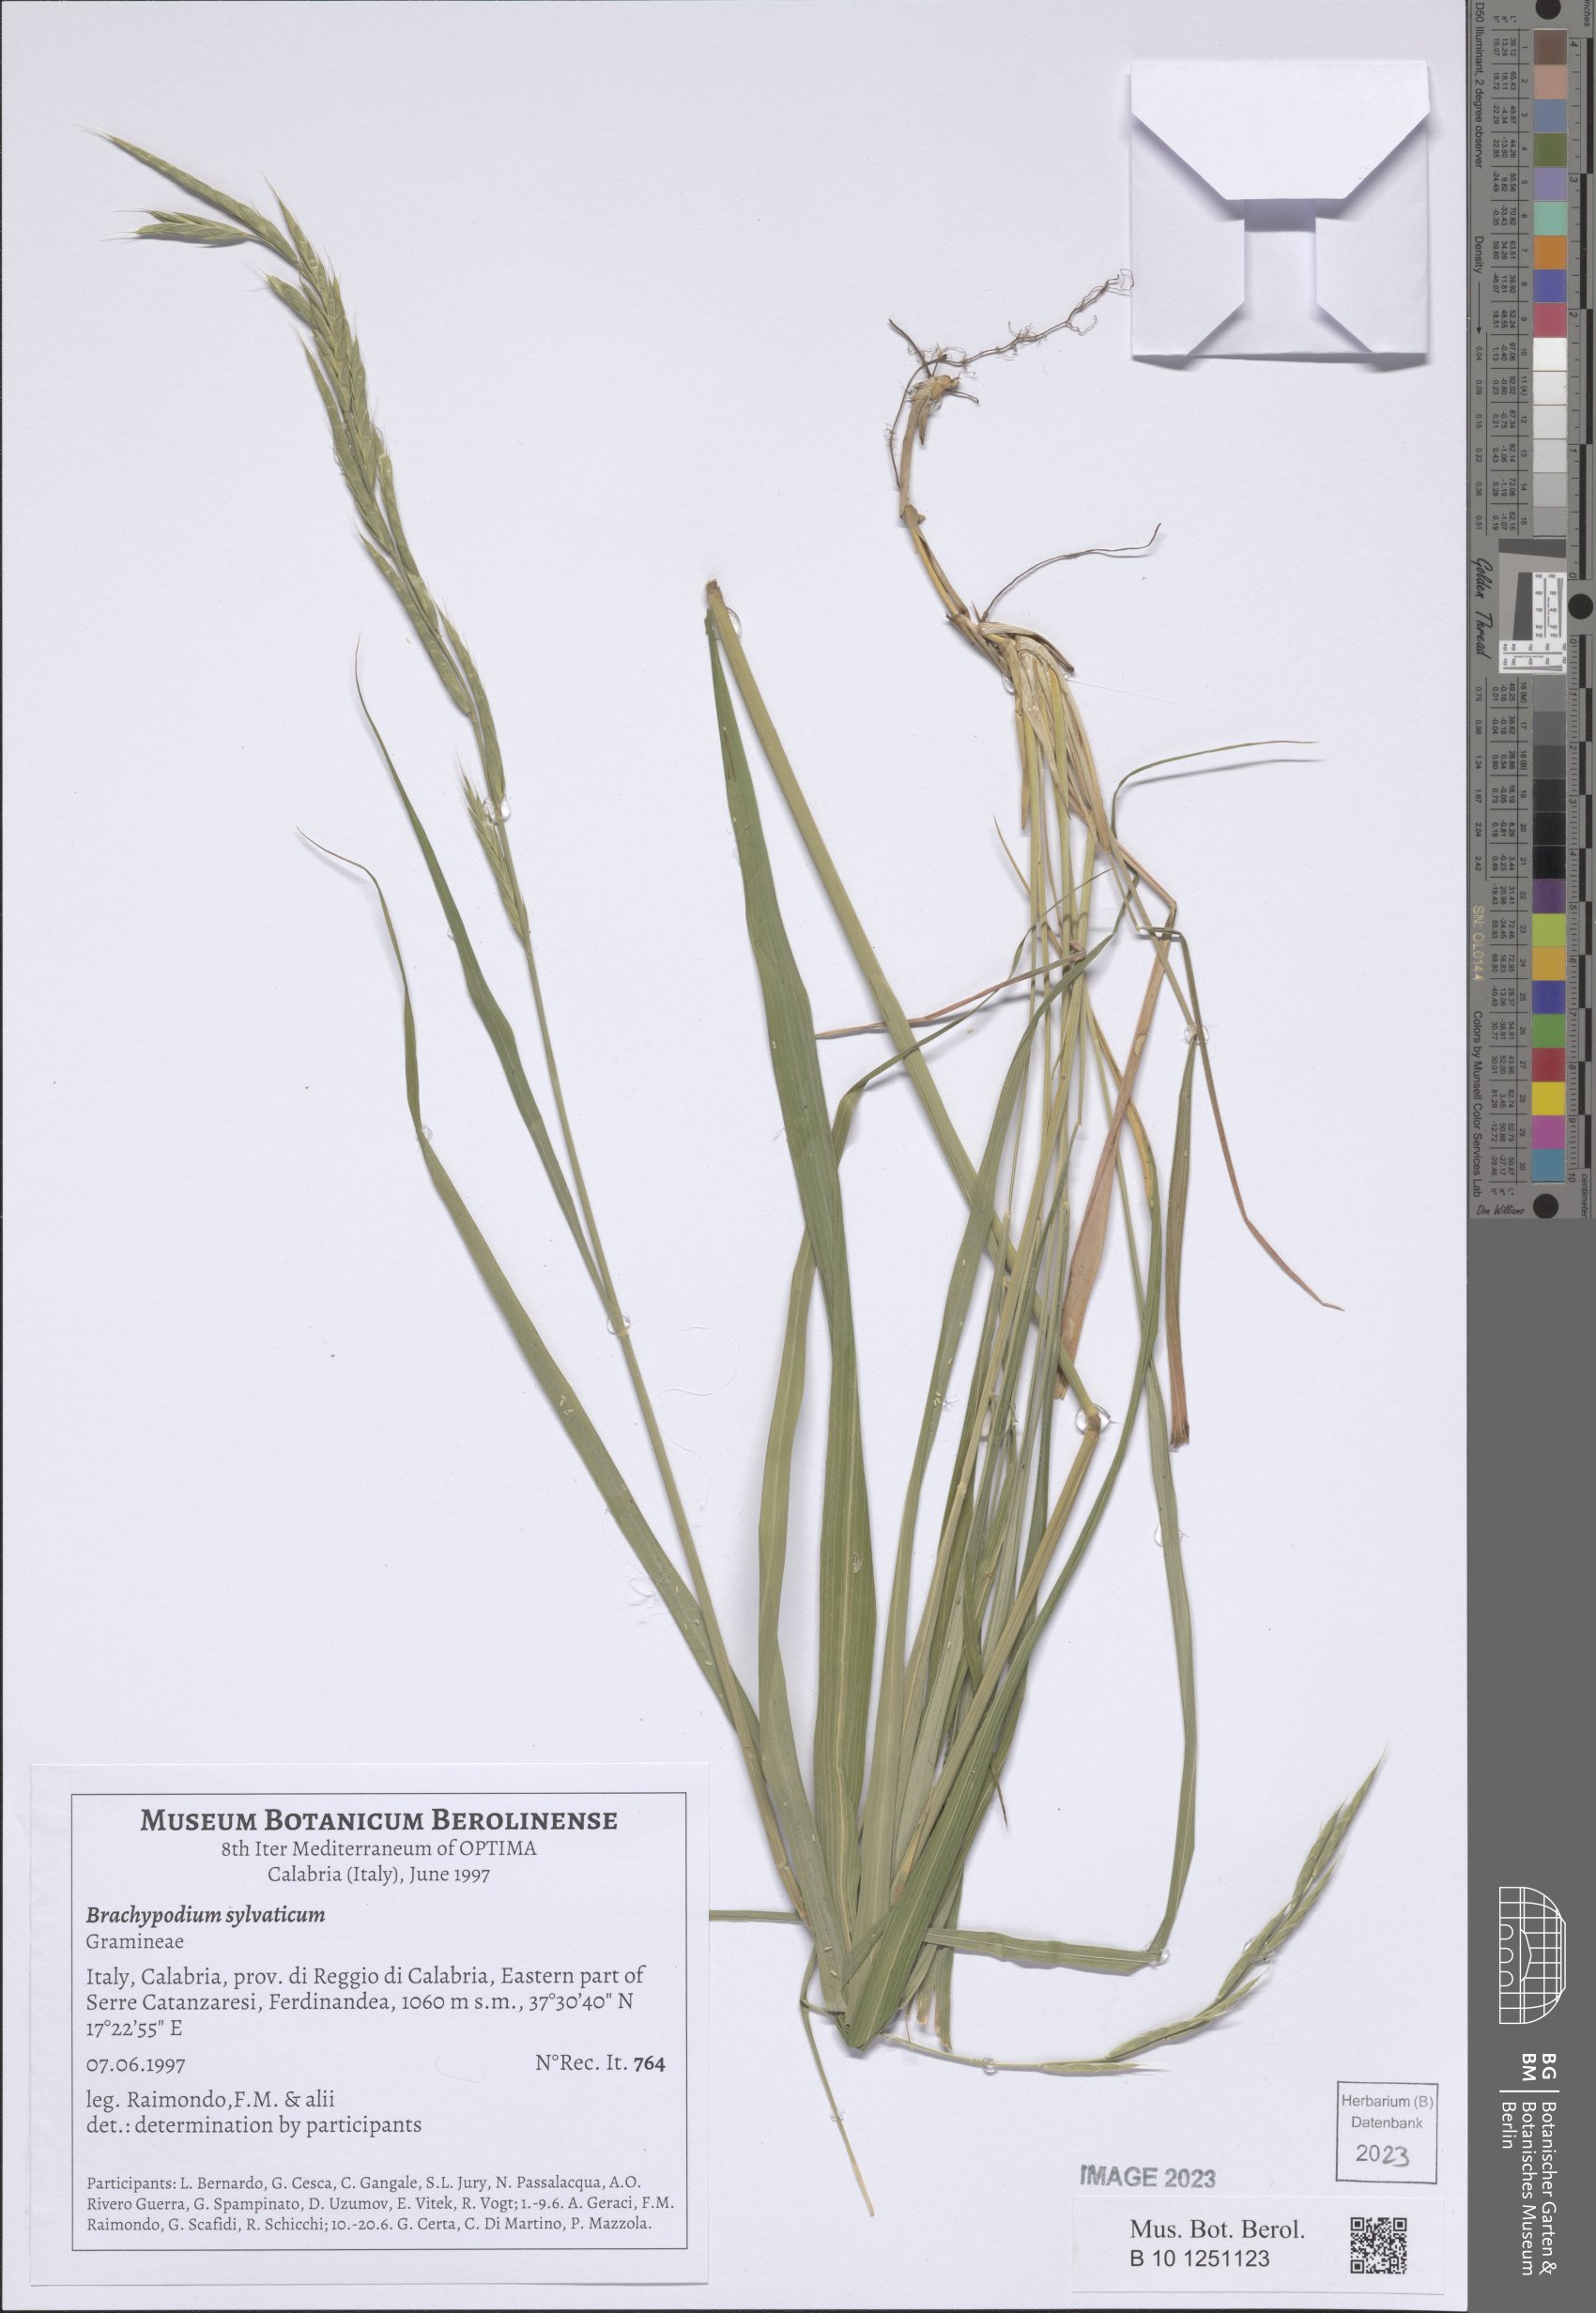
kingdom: Plantae
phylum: Tracheophyta
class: Liliopsida
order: Poales
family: Poaceae
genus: Brachypodium
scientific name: Brachypodium sylvaticum
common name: False-brome
